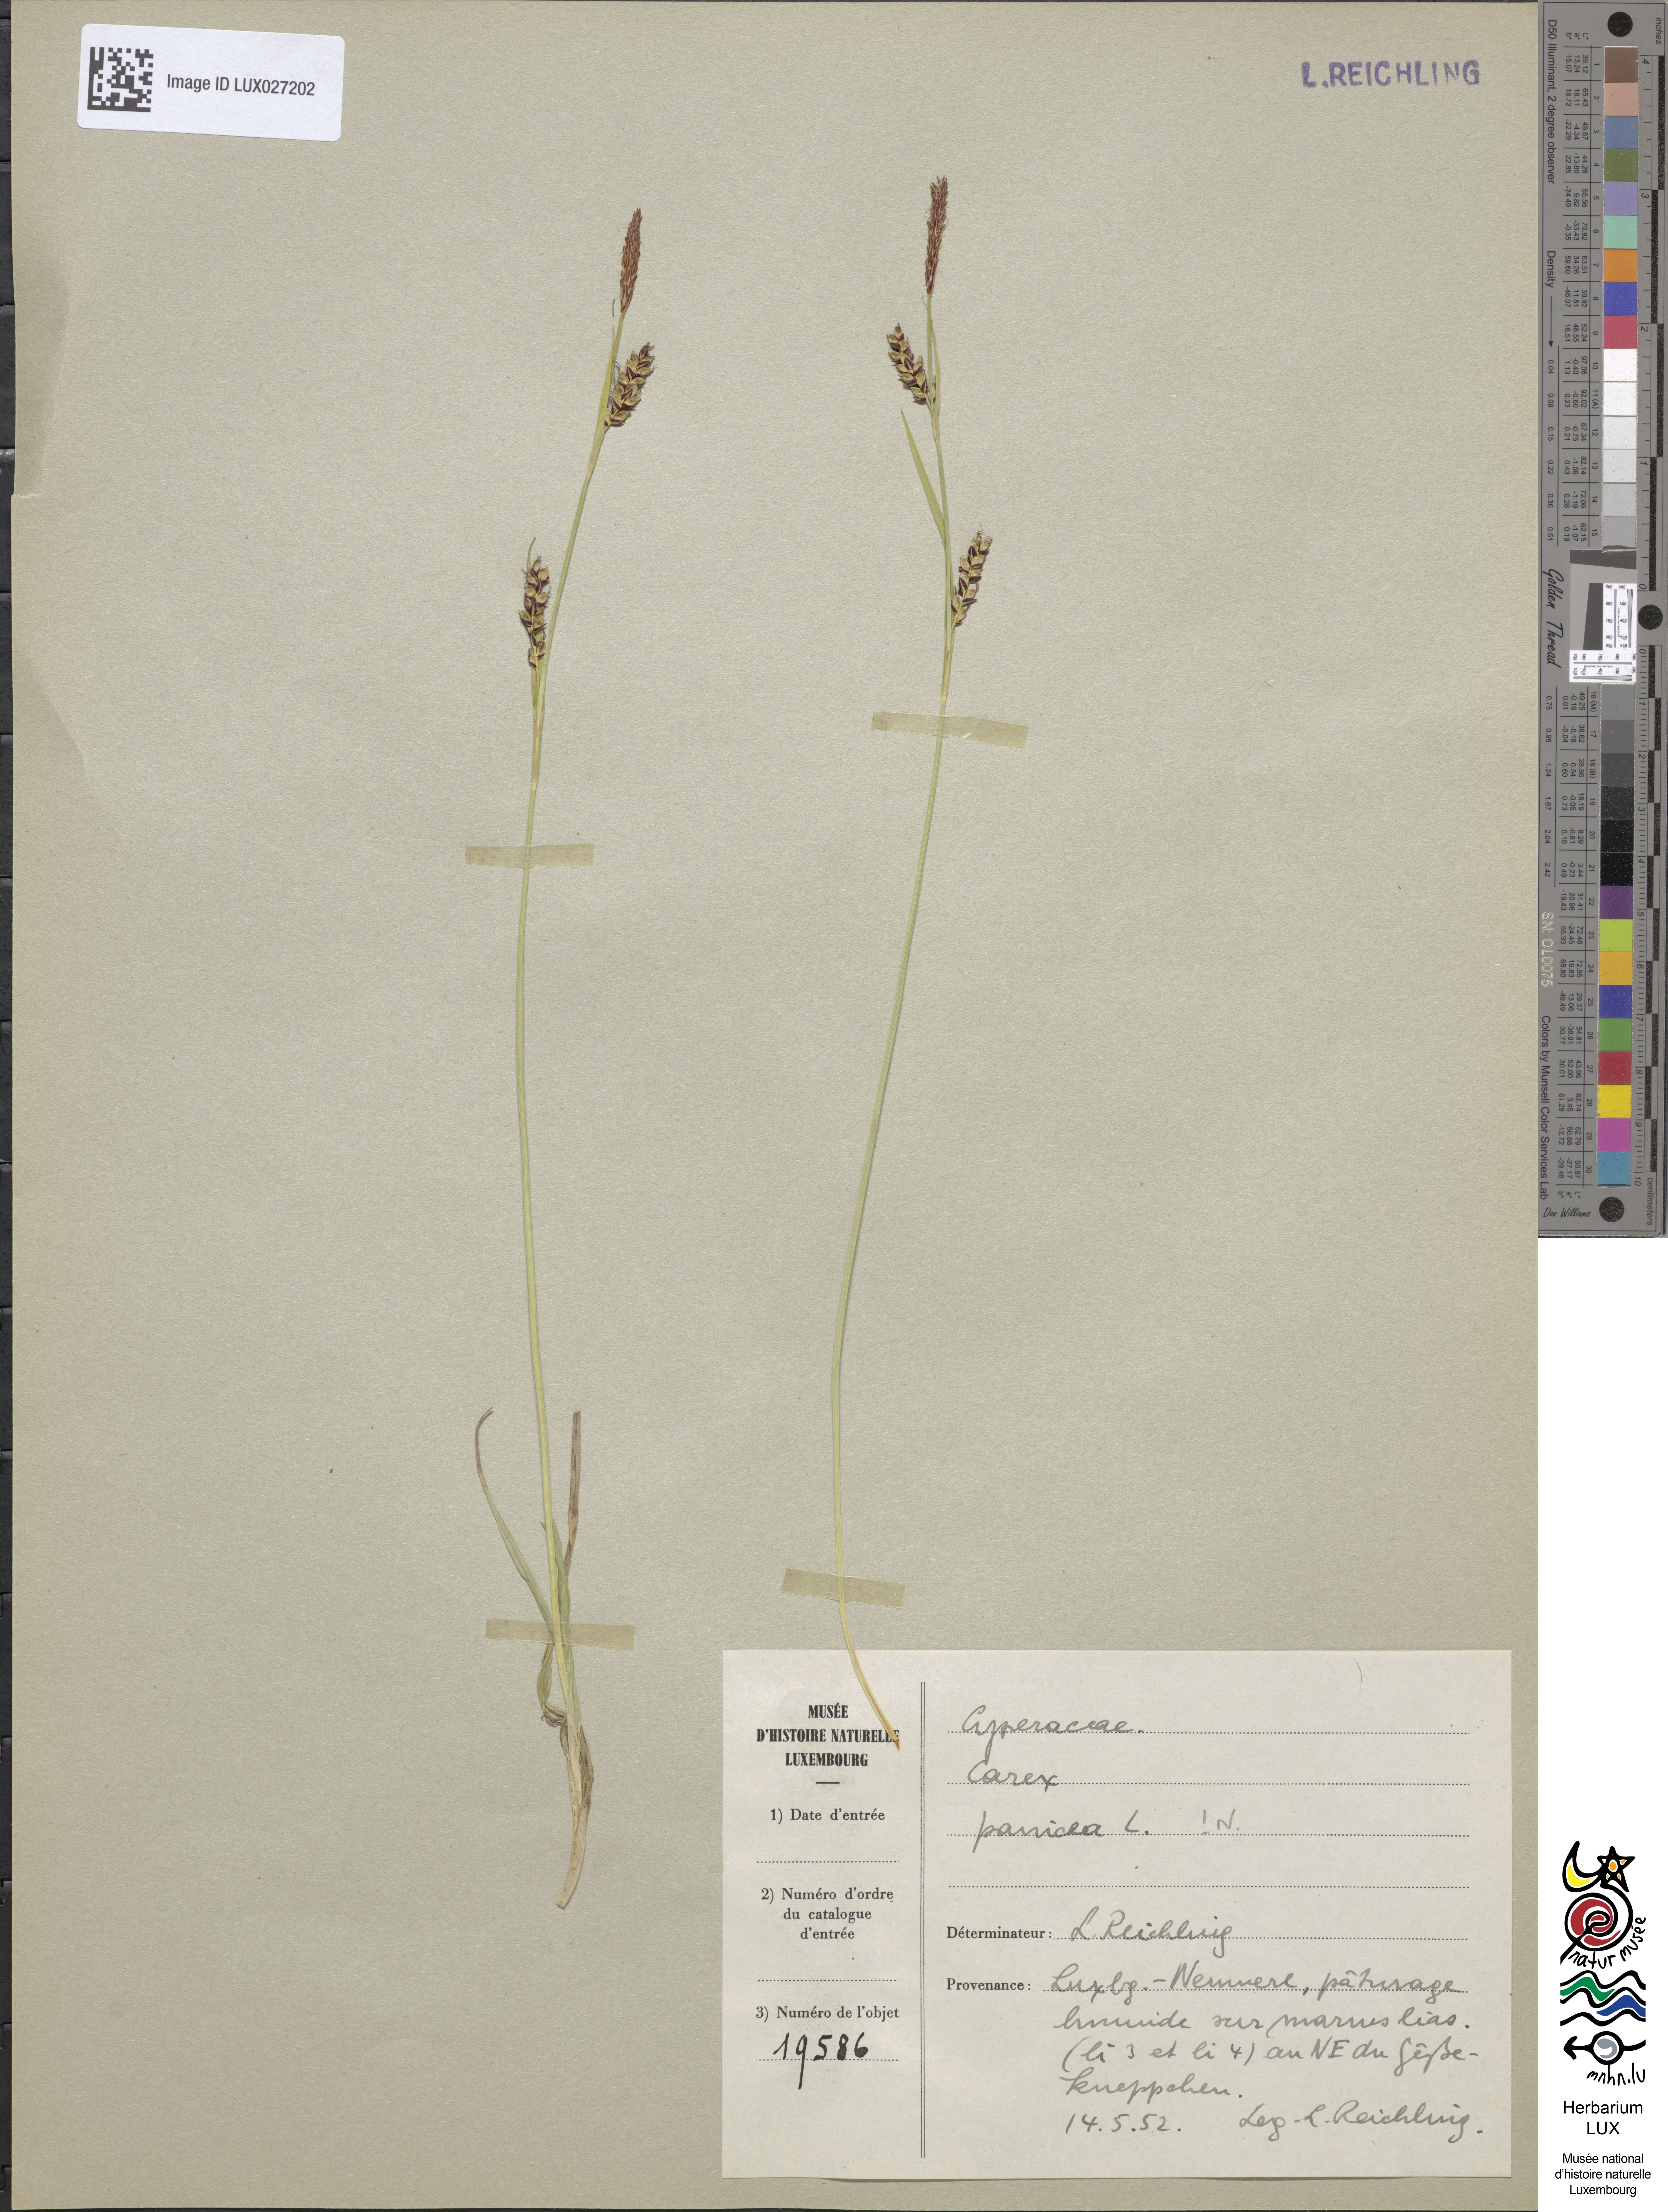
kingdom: Plantae
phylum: Tracheophyta
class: Liliopsida
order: Poales
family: Cyperaceae
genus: Carex
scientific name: Carex panicea
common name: Carnation sedge
